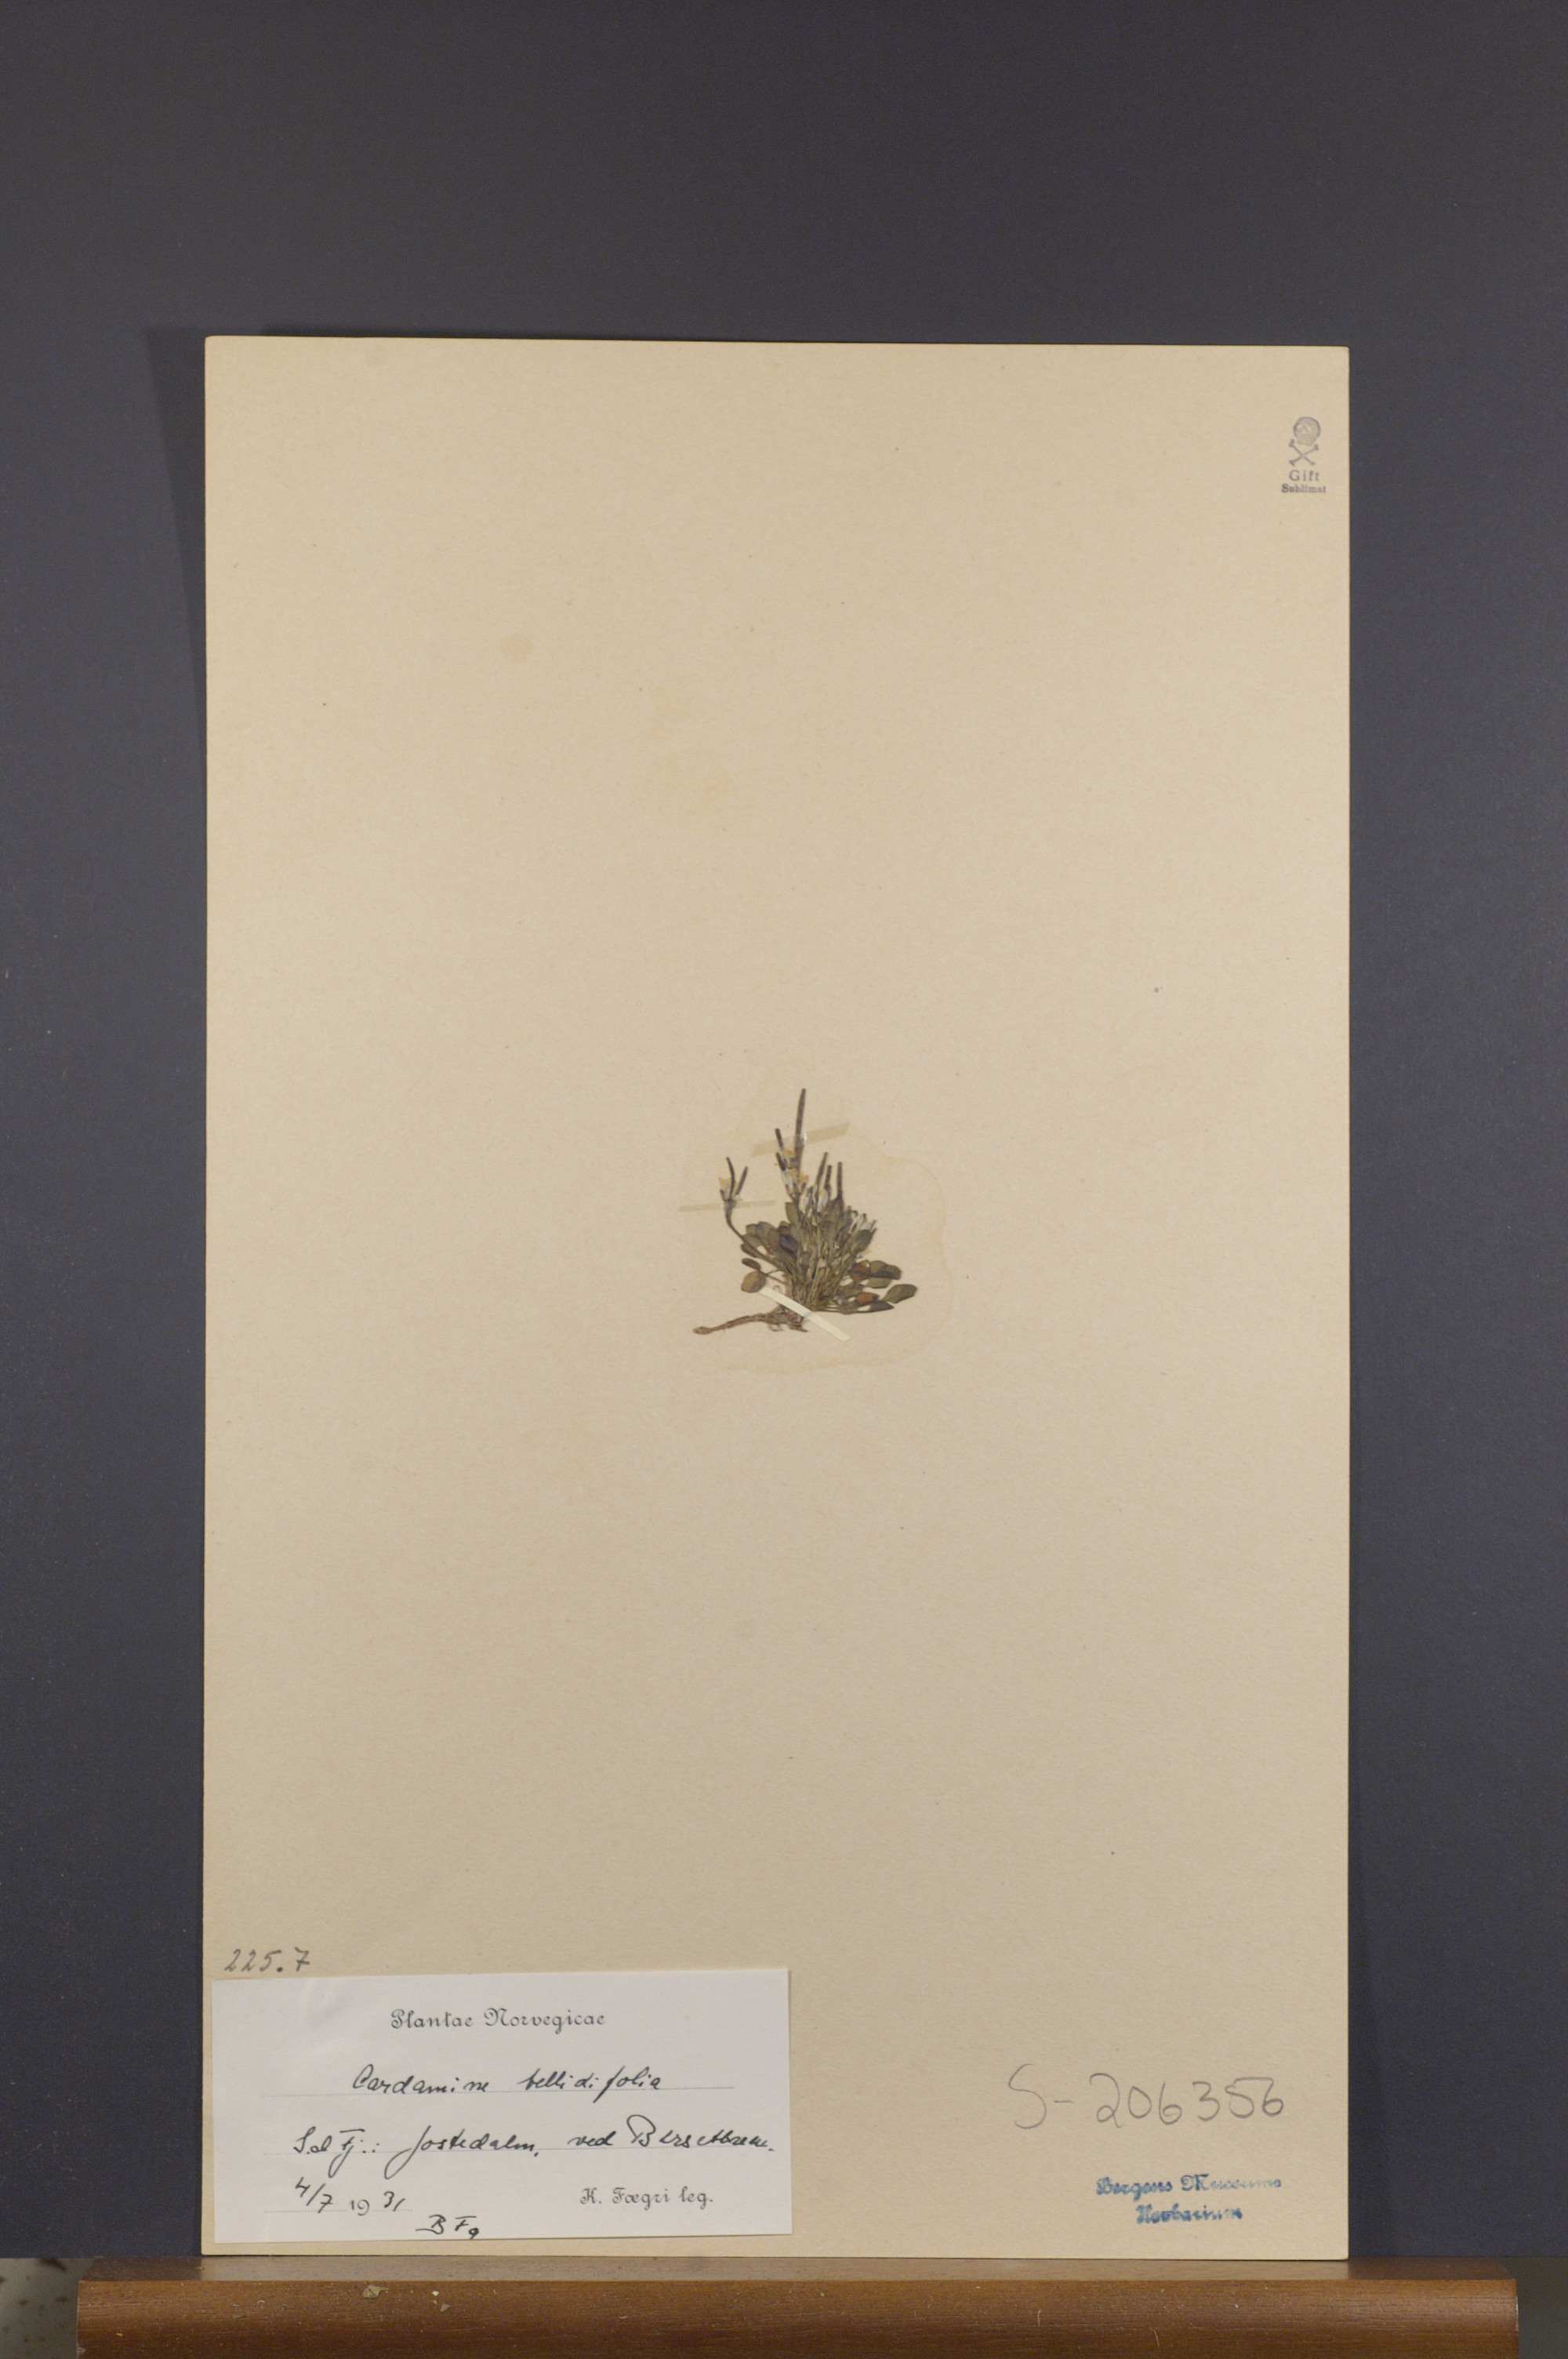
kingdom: Plantae
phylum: Tracheophyta
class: Magnoliopsida
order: Brassicales
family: Brassicaceae
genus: Cardamine
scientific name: Cardamine bellidifolia
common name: Alpine bittercress
